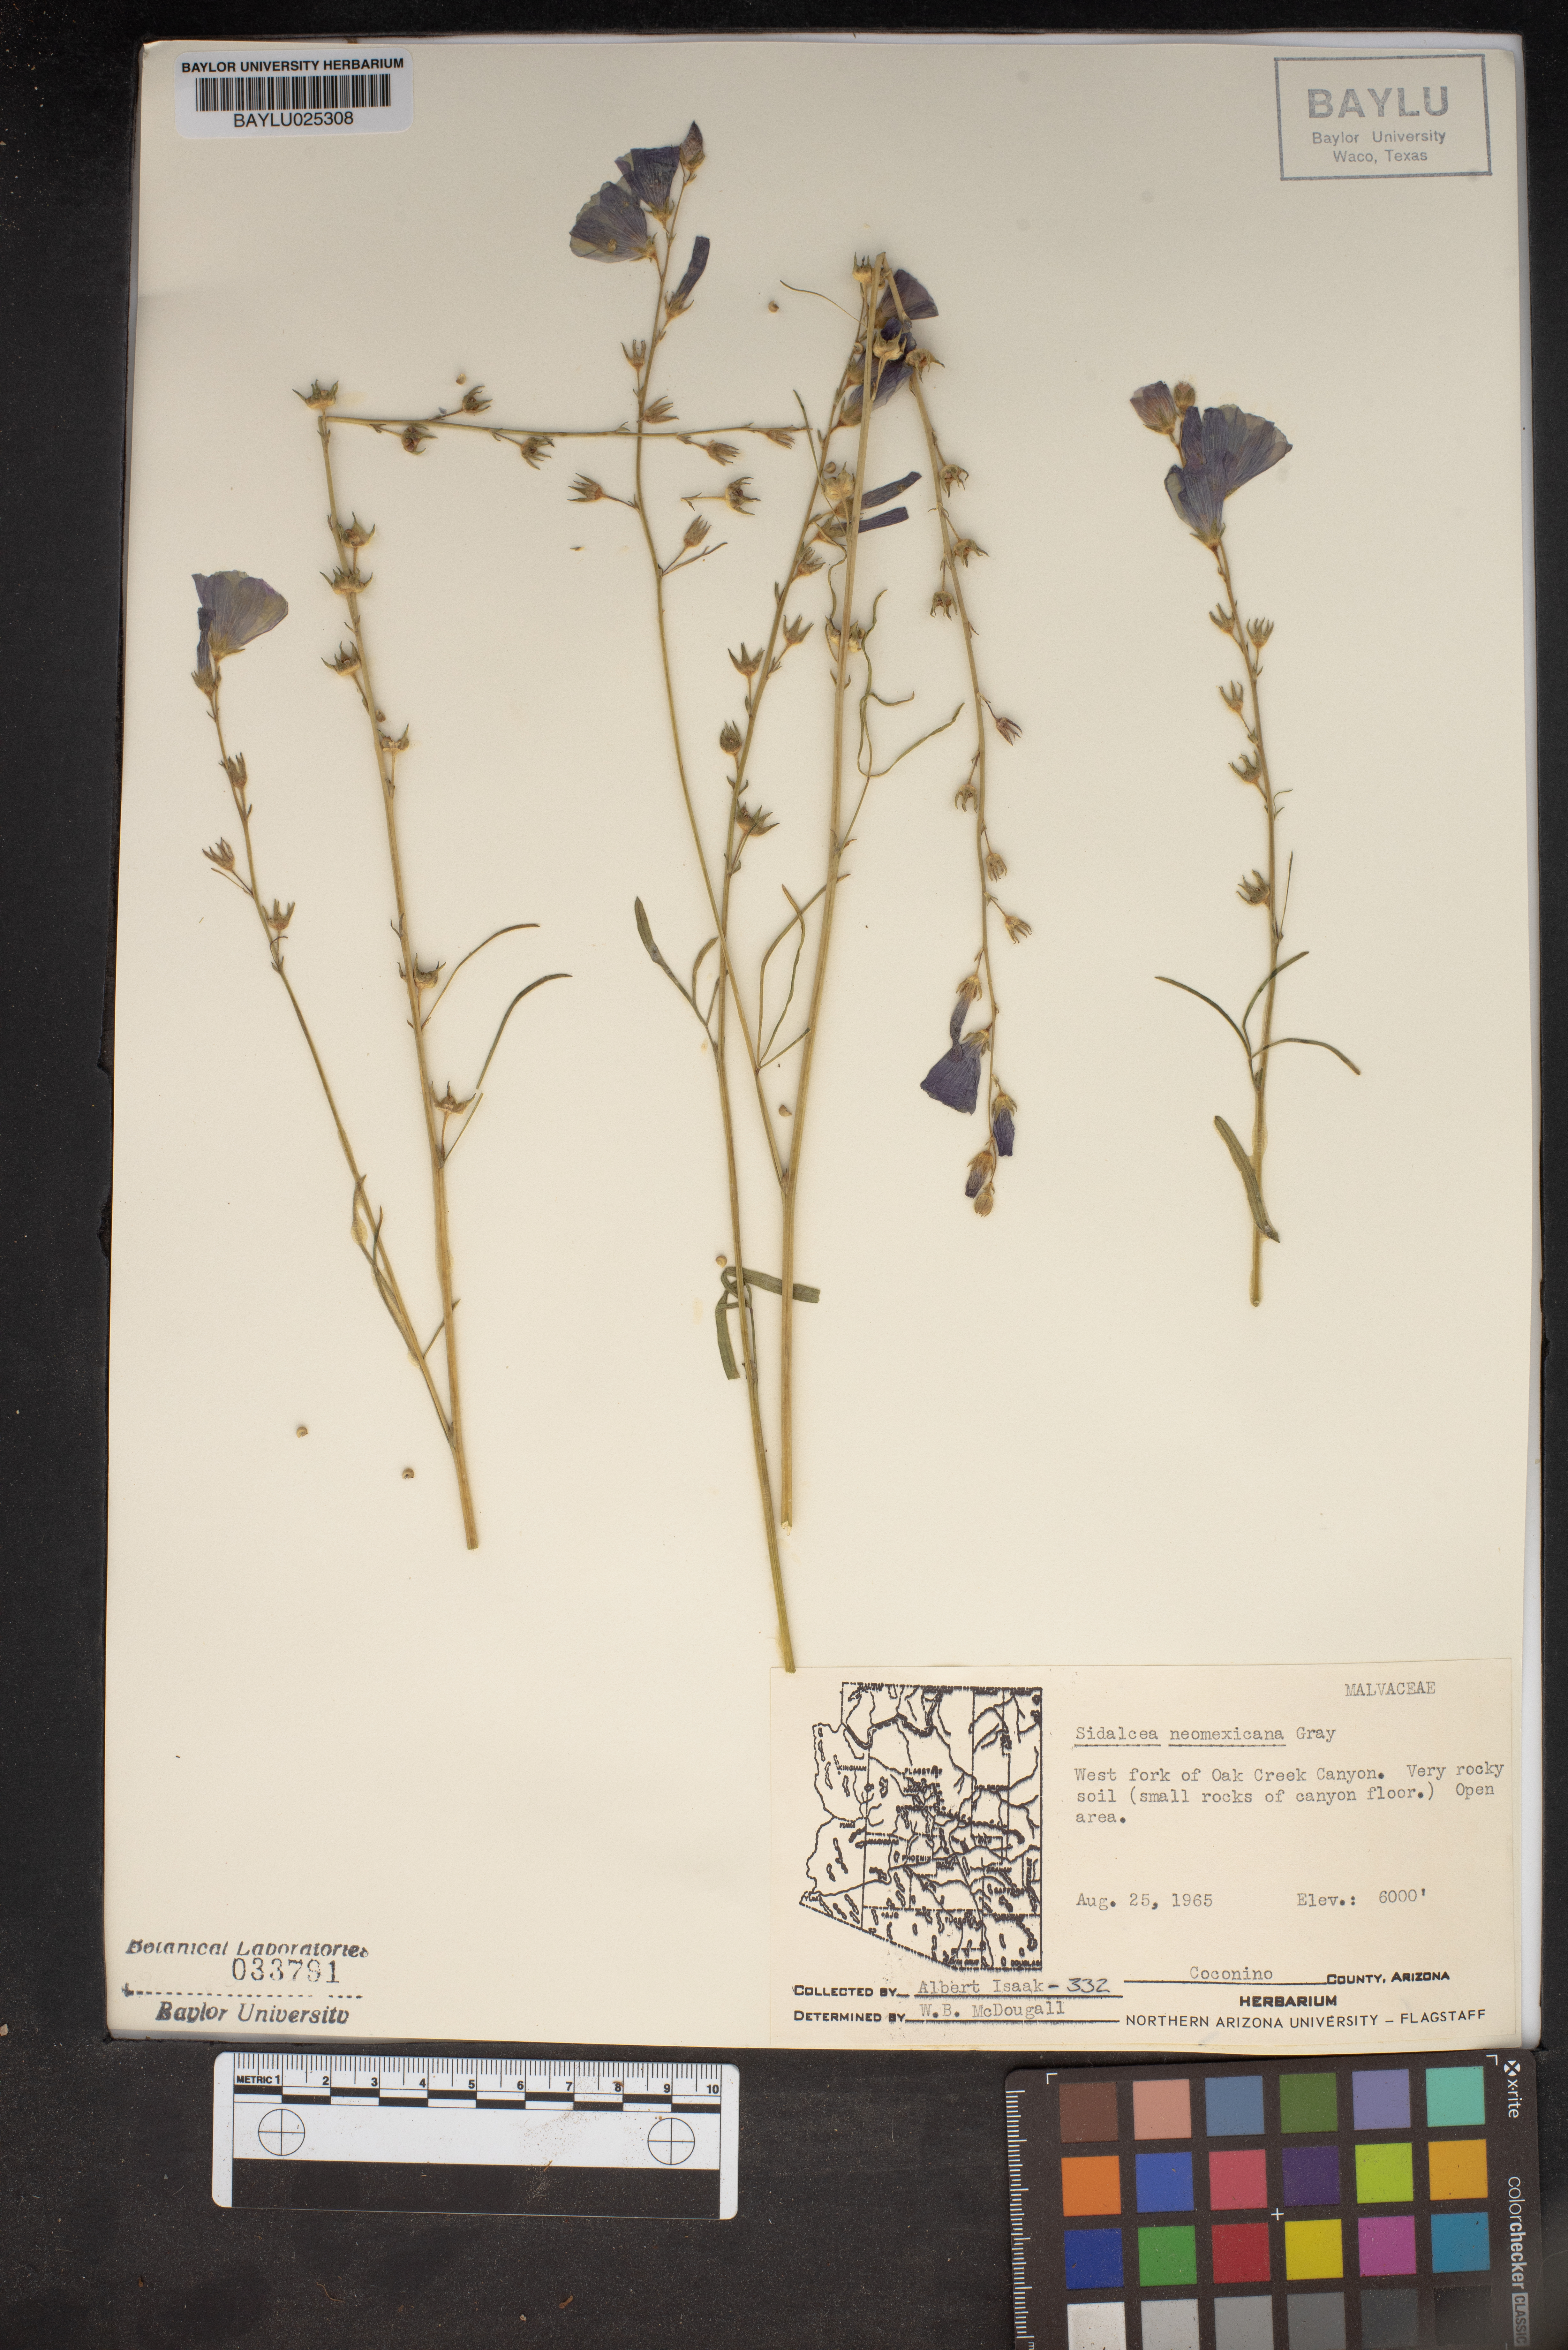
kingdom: Plantae
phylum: Tracheophyta
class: Magnoliopsida
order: Malvales
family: Malvaceae
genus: Sidalcea
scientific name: Sidalcea neomexicana
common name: New mexico checker
